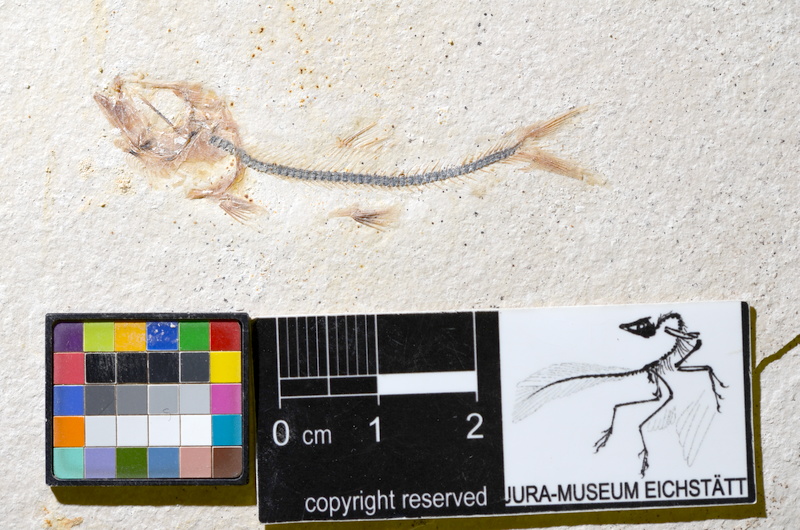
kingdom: Animalia
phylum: Chordata
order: Salmoniformes
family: Orthogonikleithridae
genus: Orthogonikleithrus
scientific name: Orthogonikleithrus hoelli
